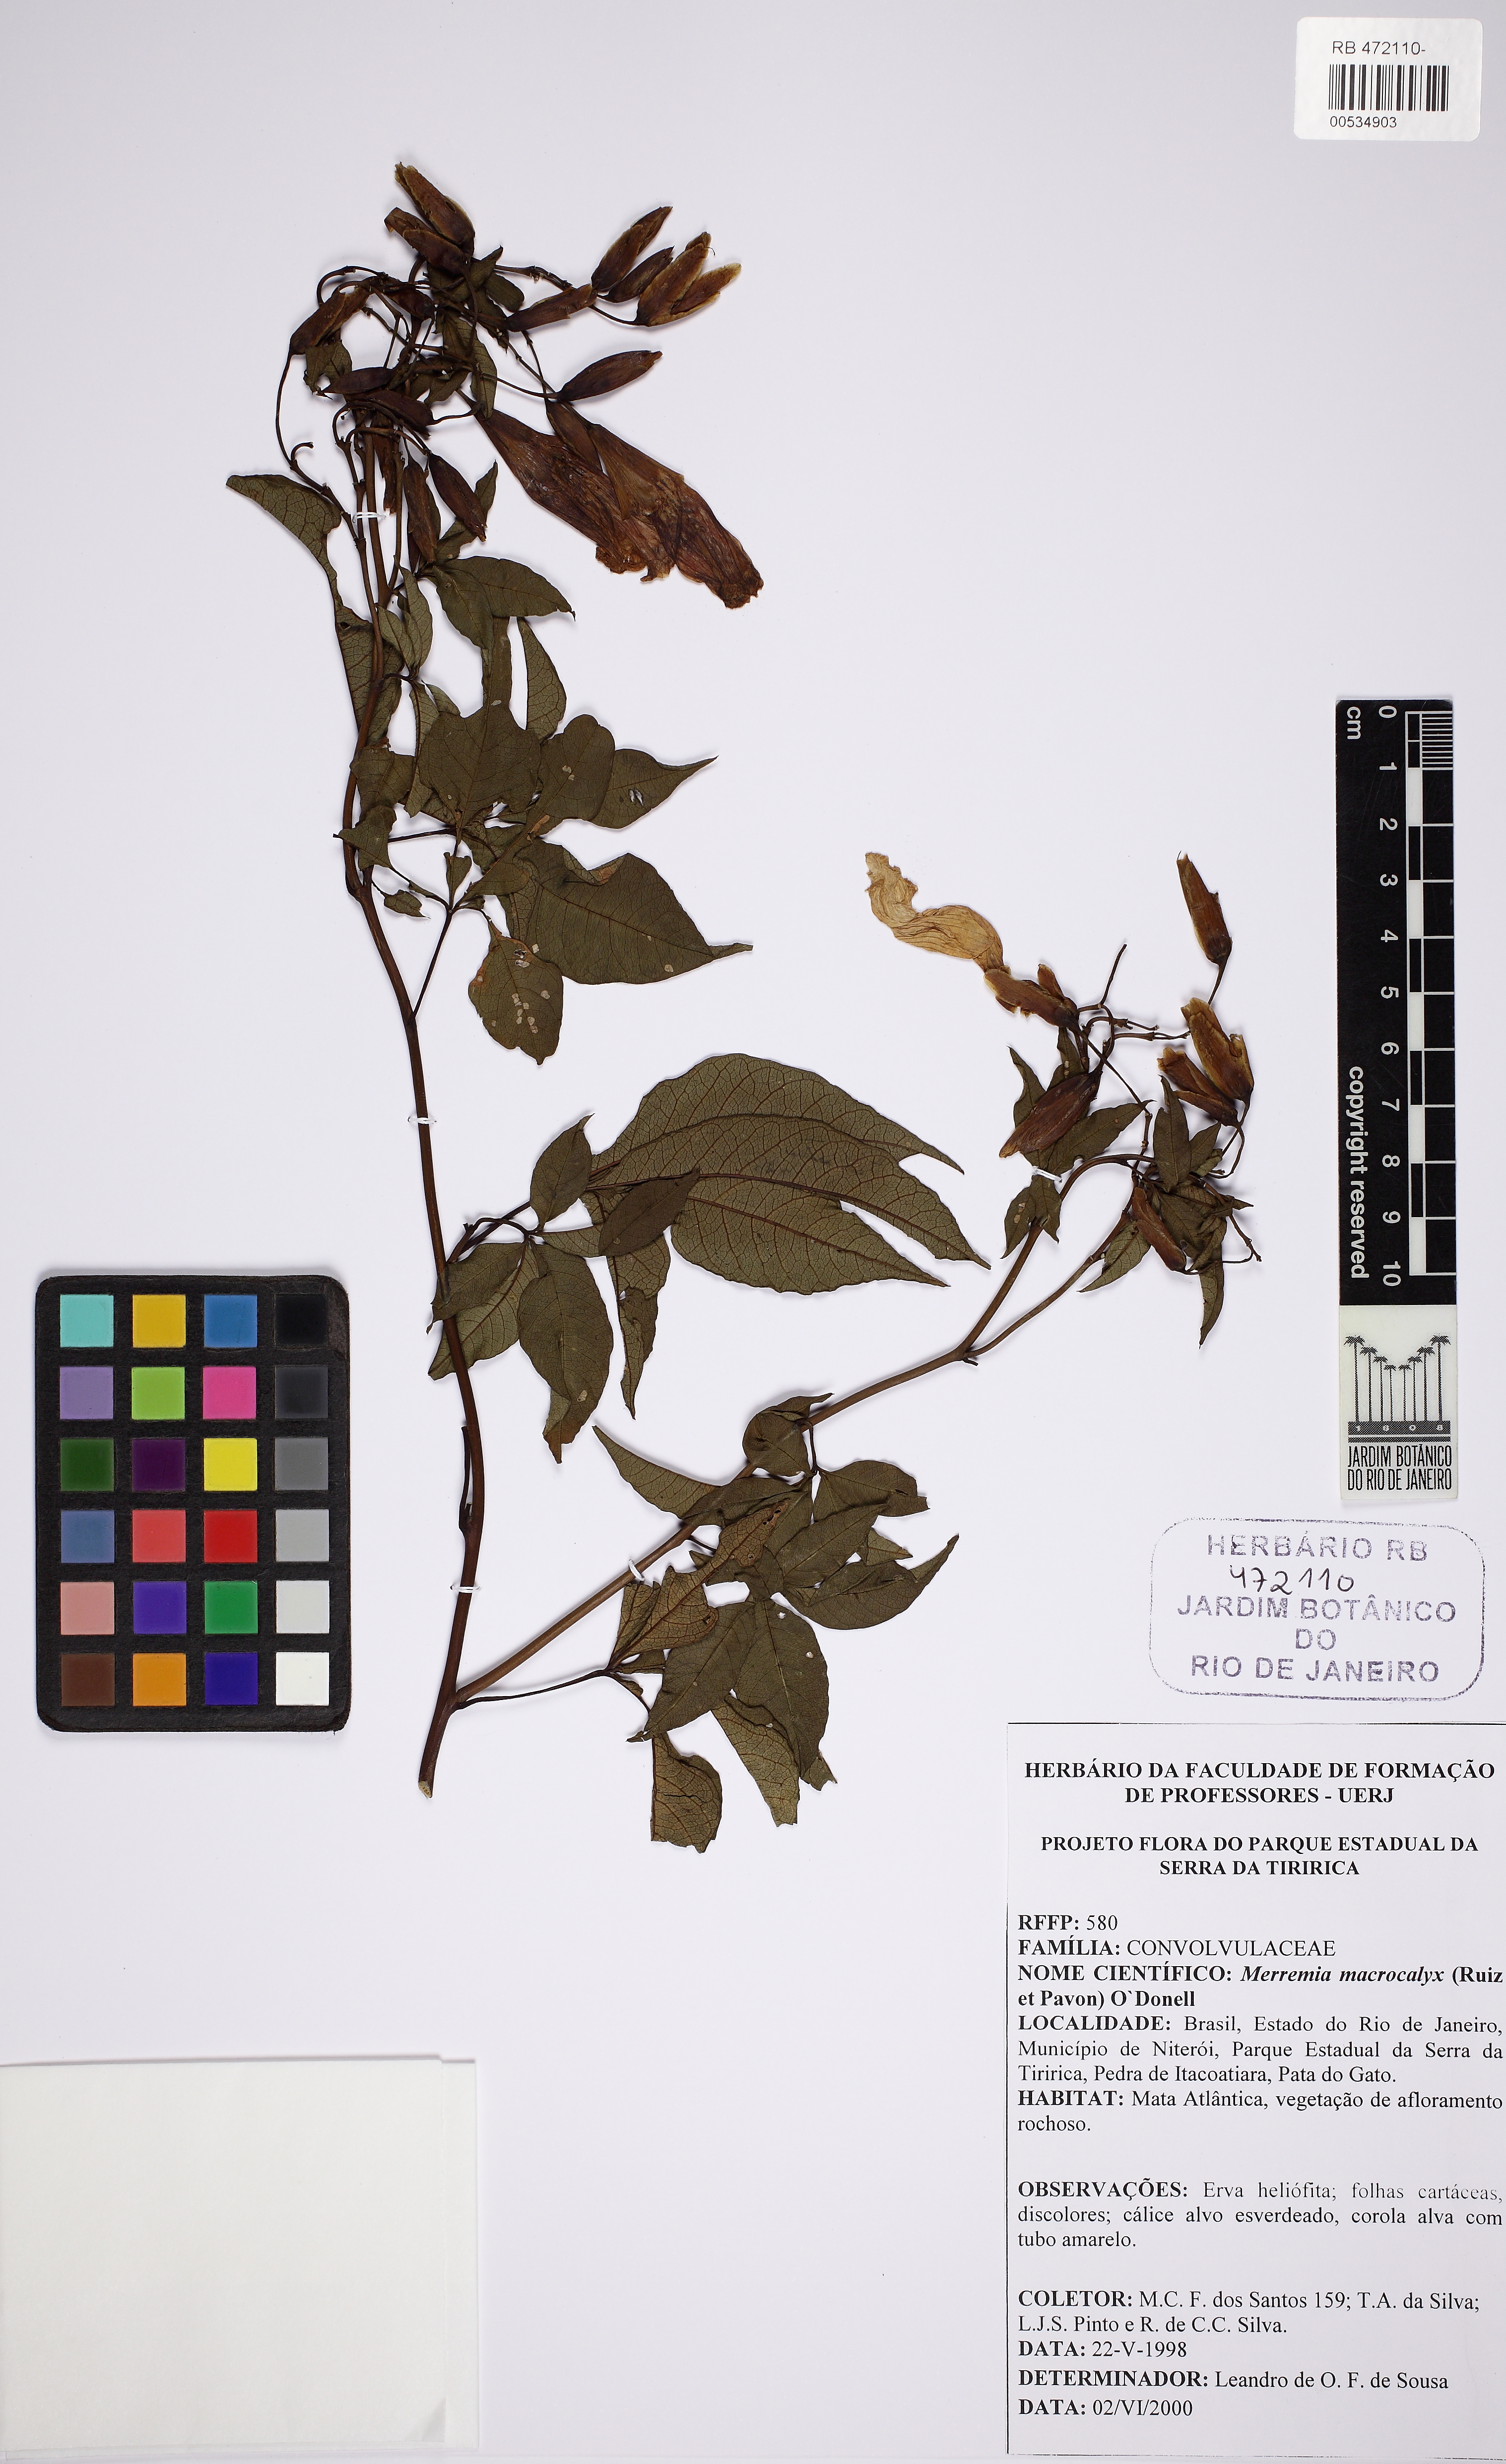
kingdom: Plantae
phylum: Tracheophyta
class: Magnoliopsida
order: Solanales
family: Convolvulaceae
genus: Distimake
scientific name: Distimake macrocalyx
